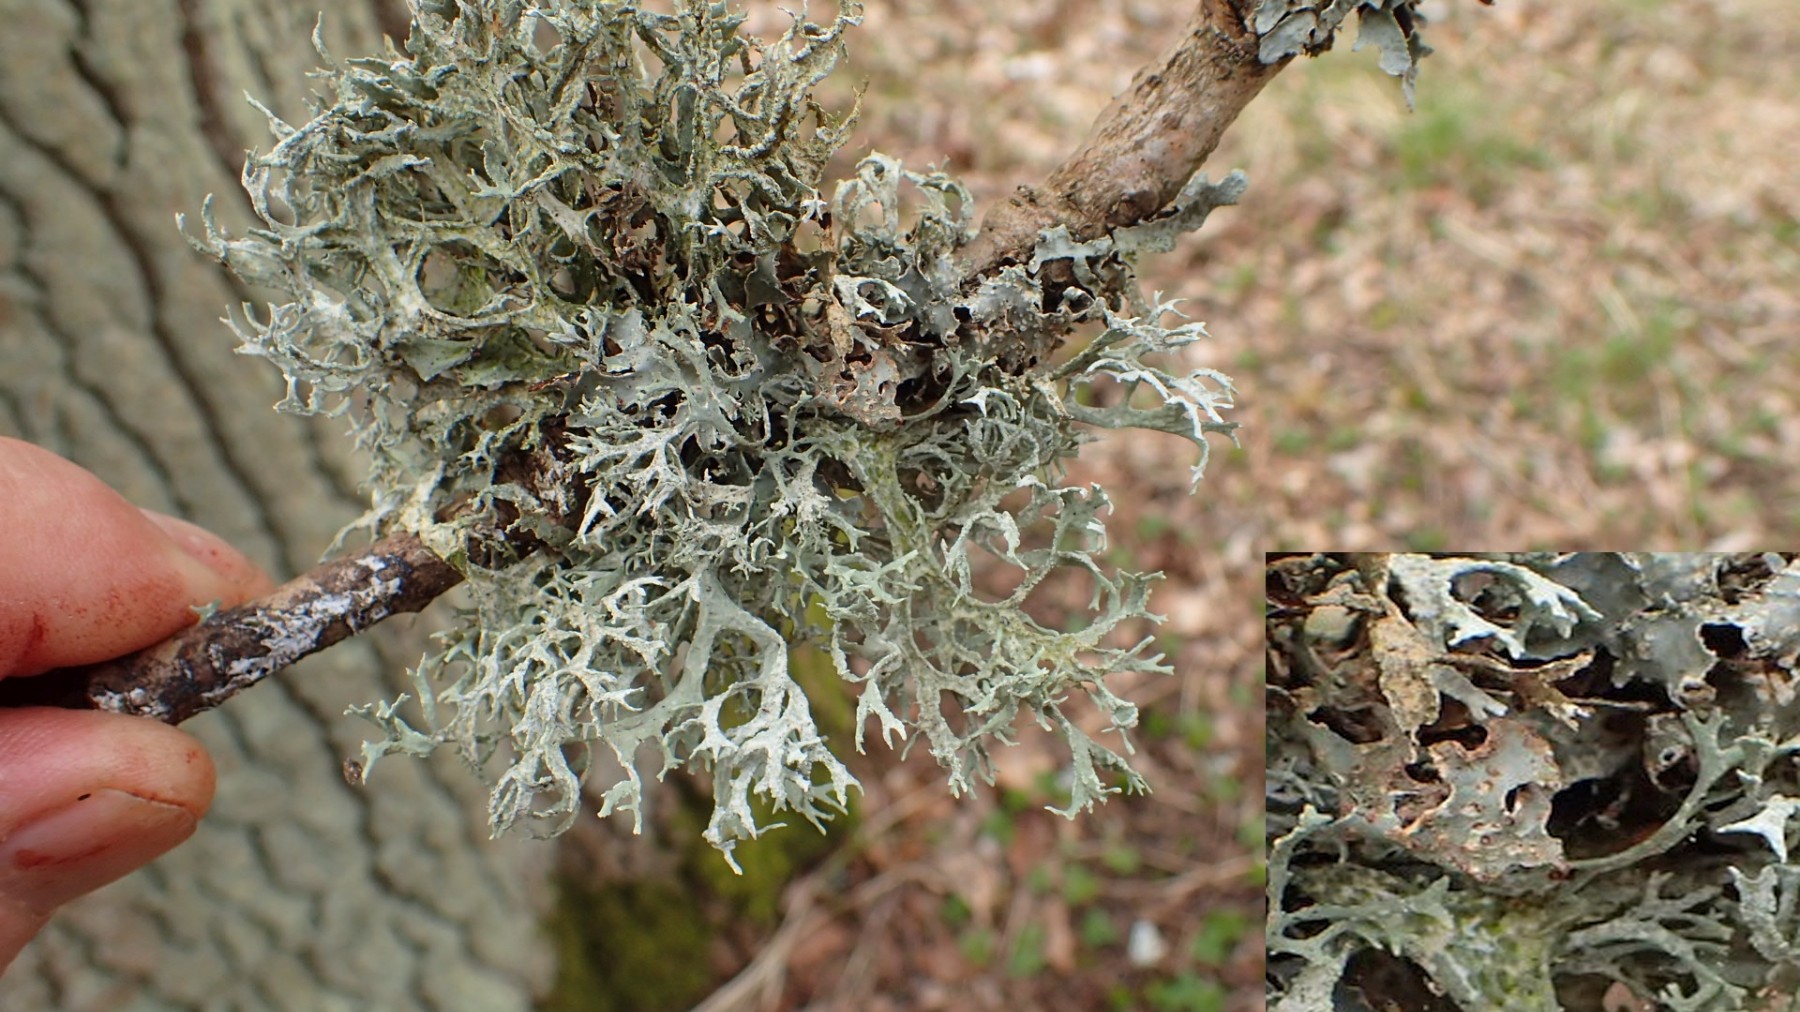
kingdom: Fungi
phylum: Ascomycota
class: Lecanoromycetes
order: Lecanorales
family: Parmeliaceae
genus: Evernia
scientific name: Evernia prunastri
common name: almindelig slåenlav
